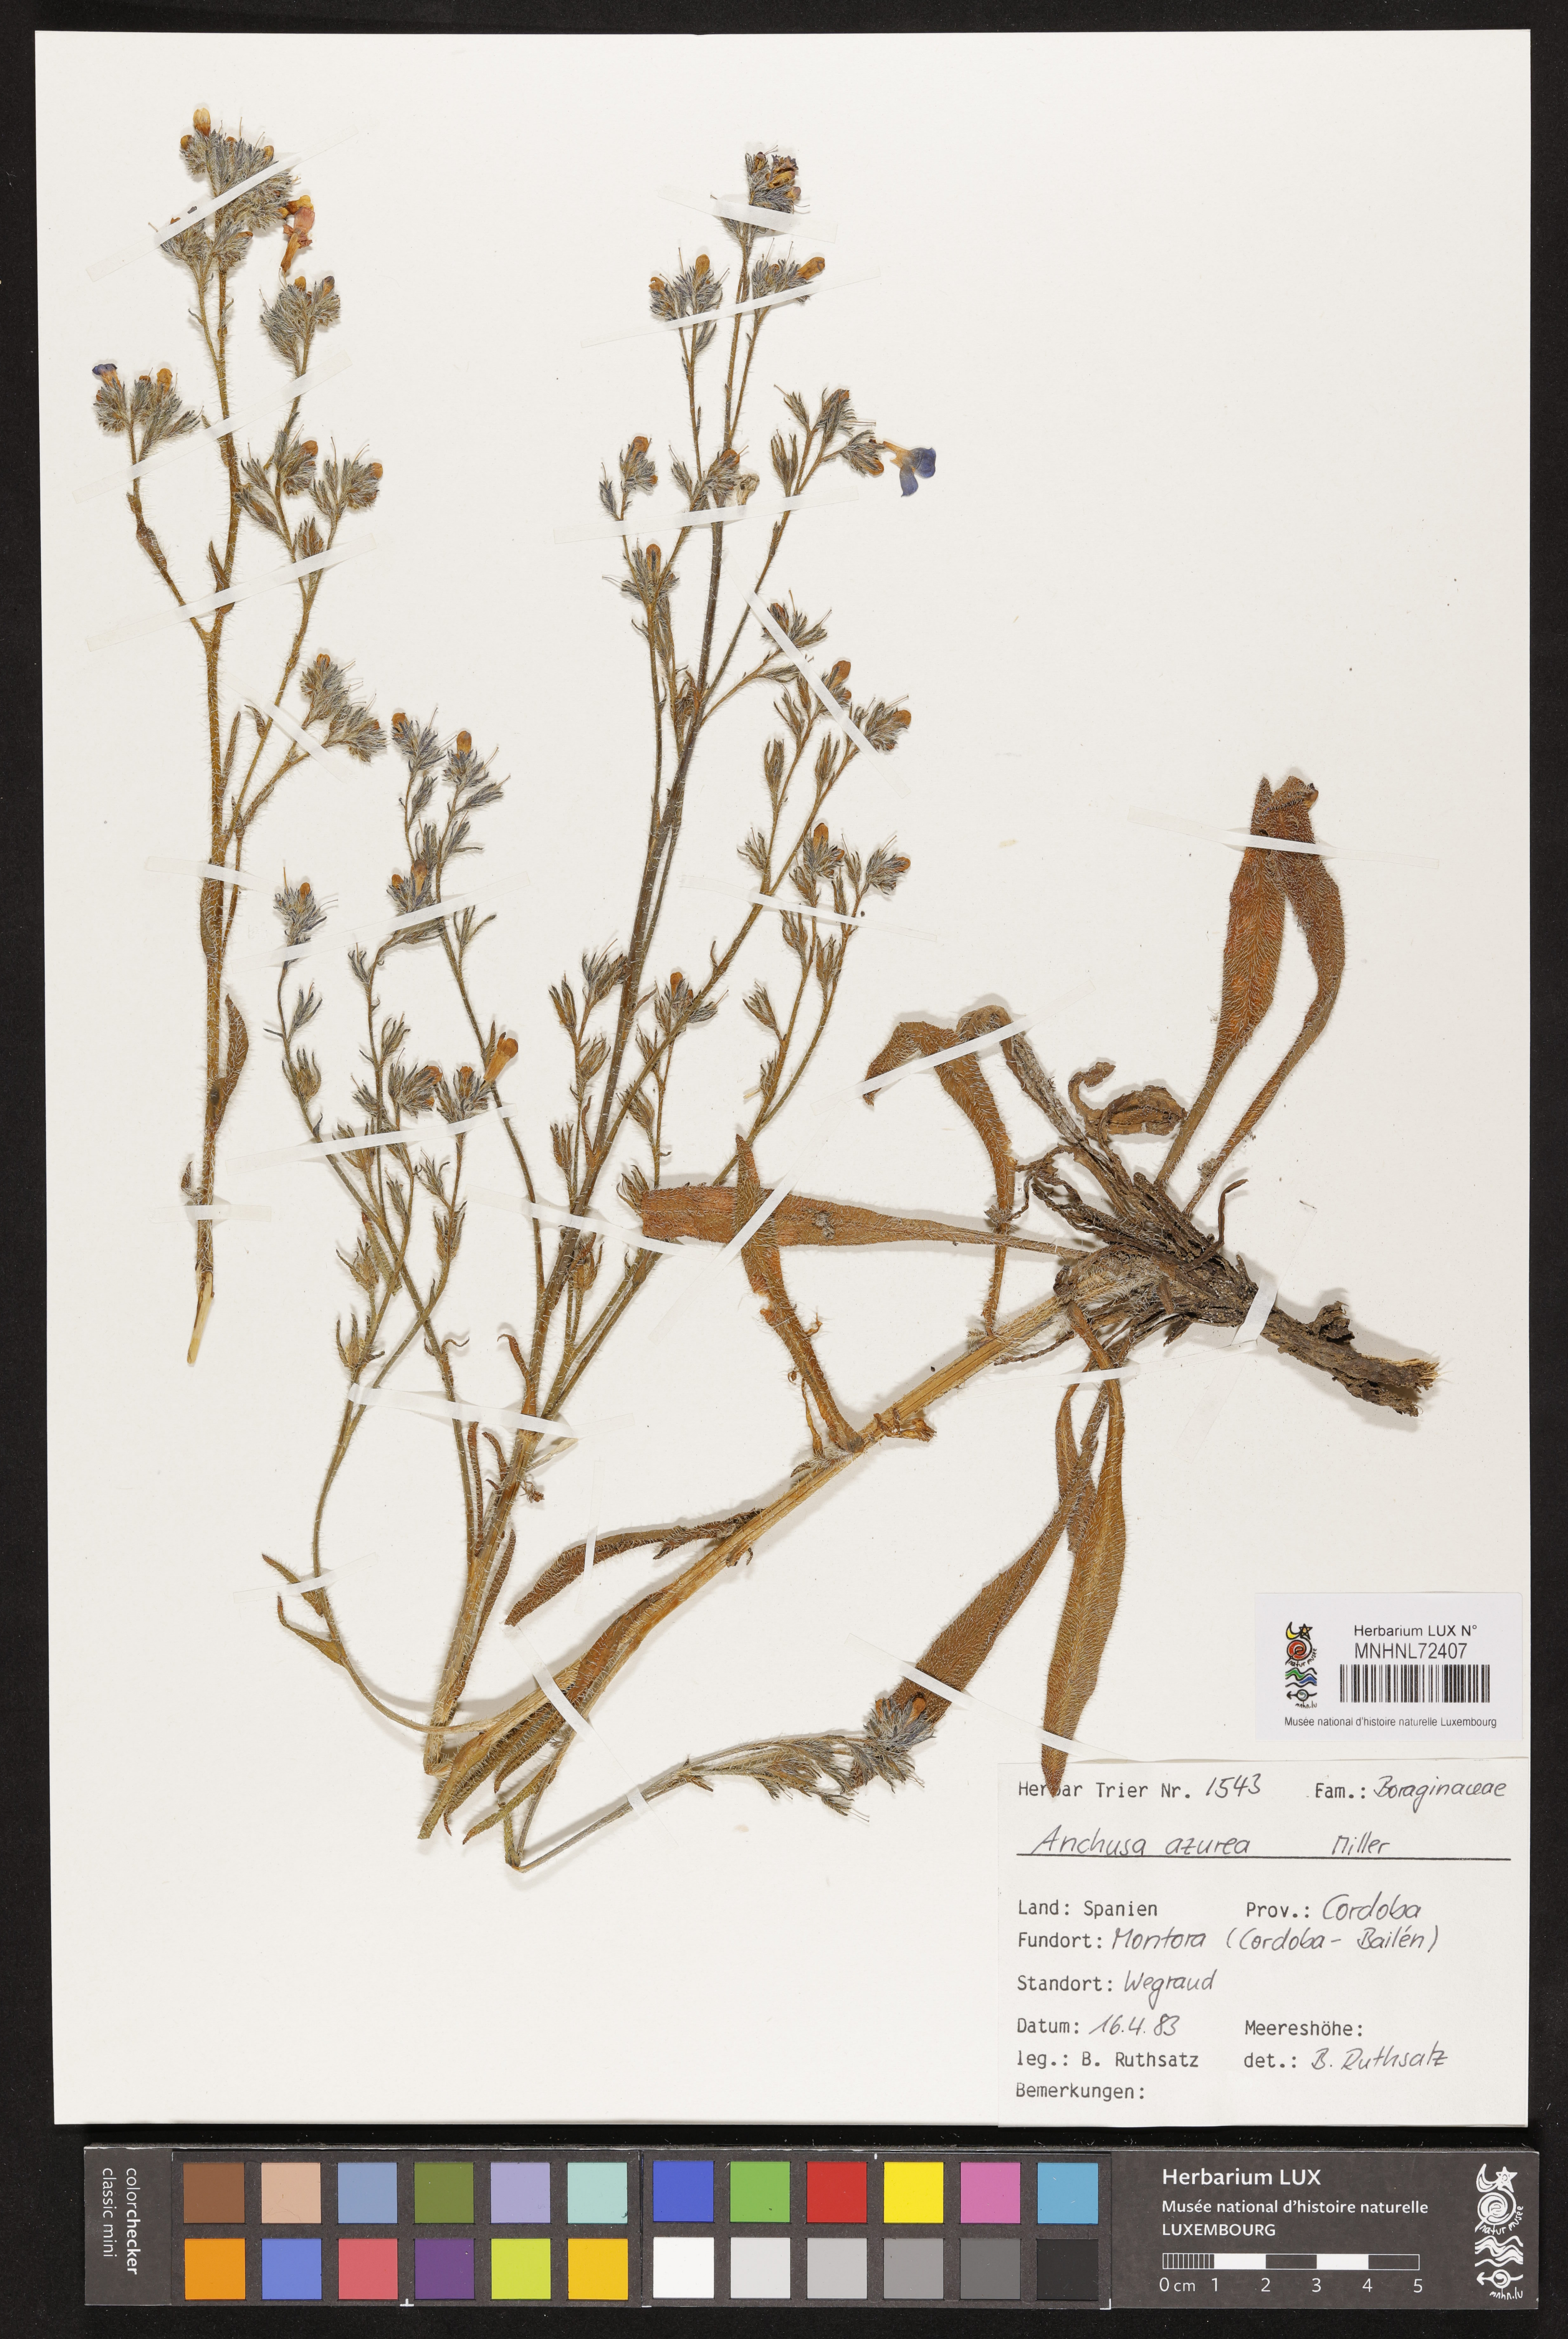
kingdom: Plantae
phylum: Tracheophyta
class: Magnoliopsida
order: Boraginales
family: Boraginaceae
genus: Anchusa
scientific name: Anchusa azurea
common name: Garden anchusa
